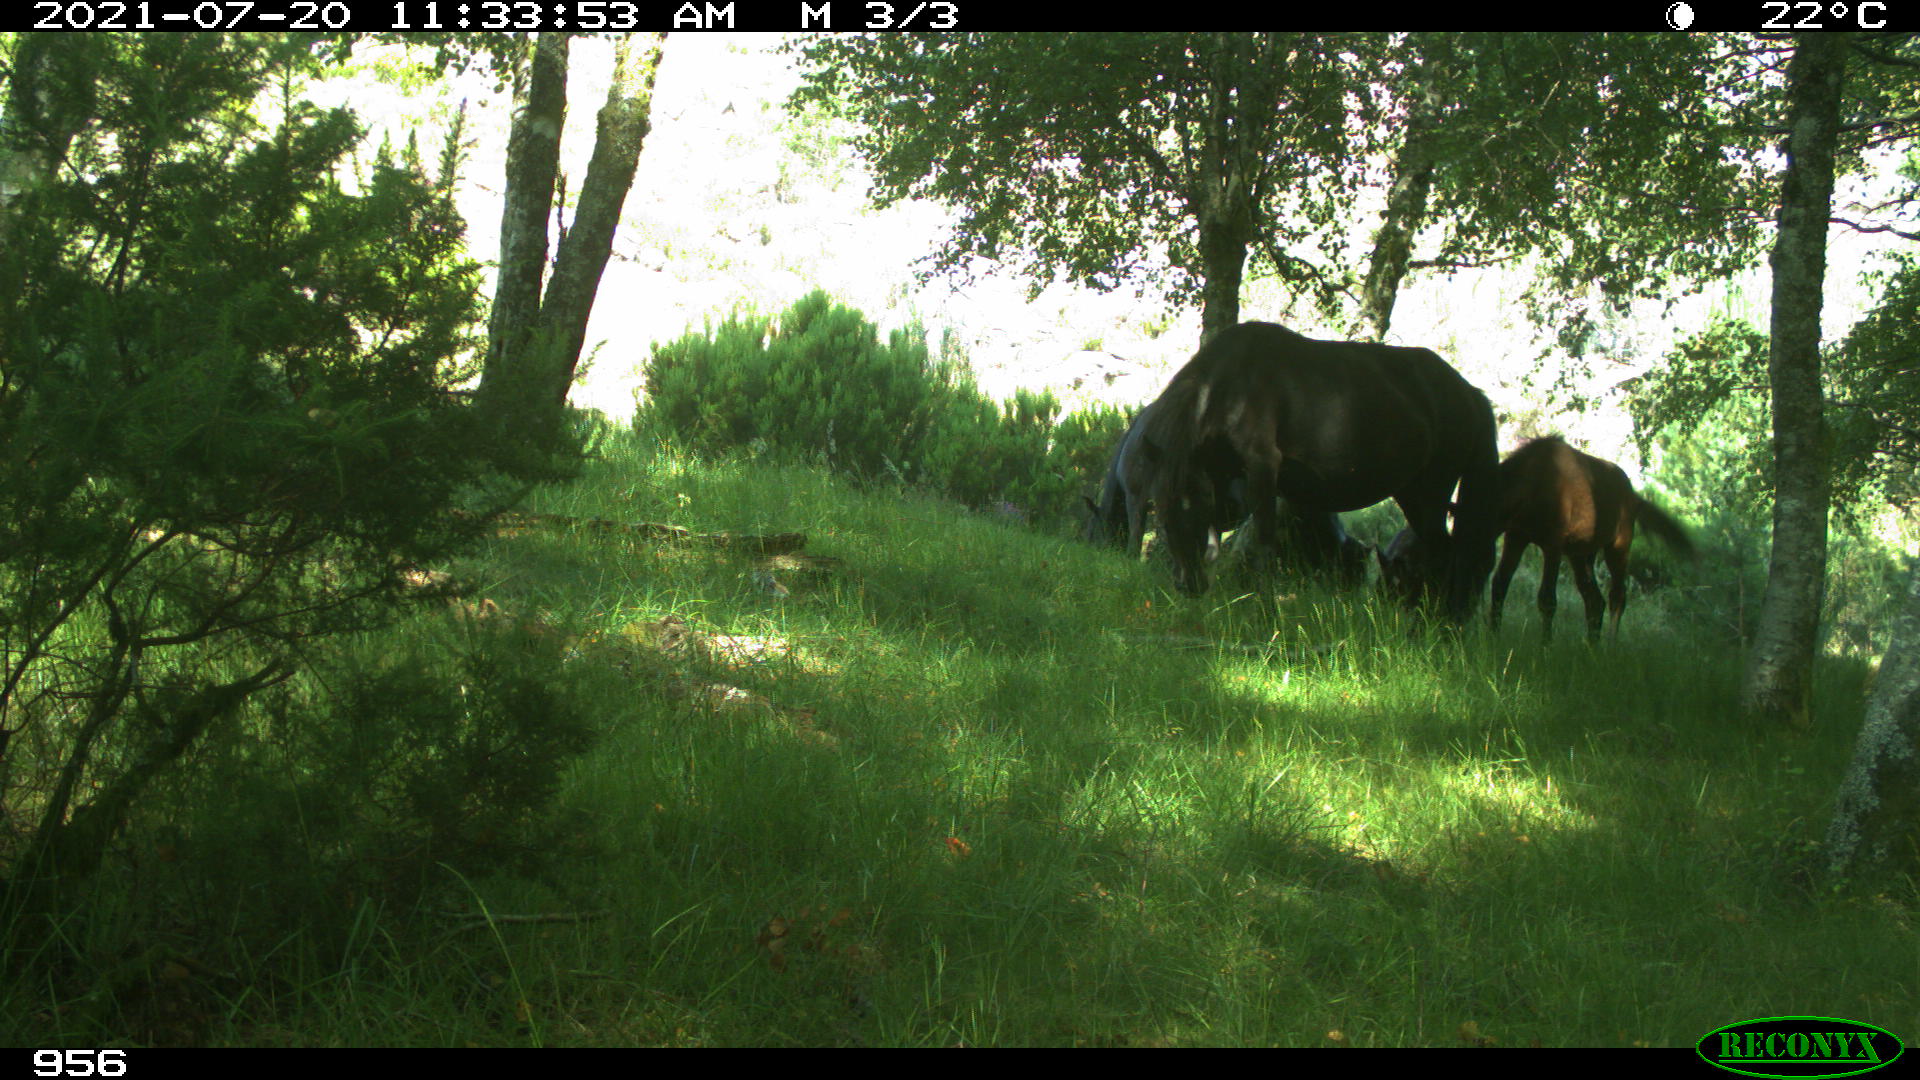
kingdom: Animalia
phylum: Chordata
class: Mammalia
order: Perissodactyla
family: Equidae
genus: Equus
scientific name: Equus caballus
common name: Horse
